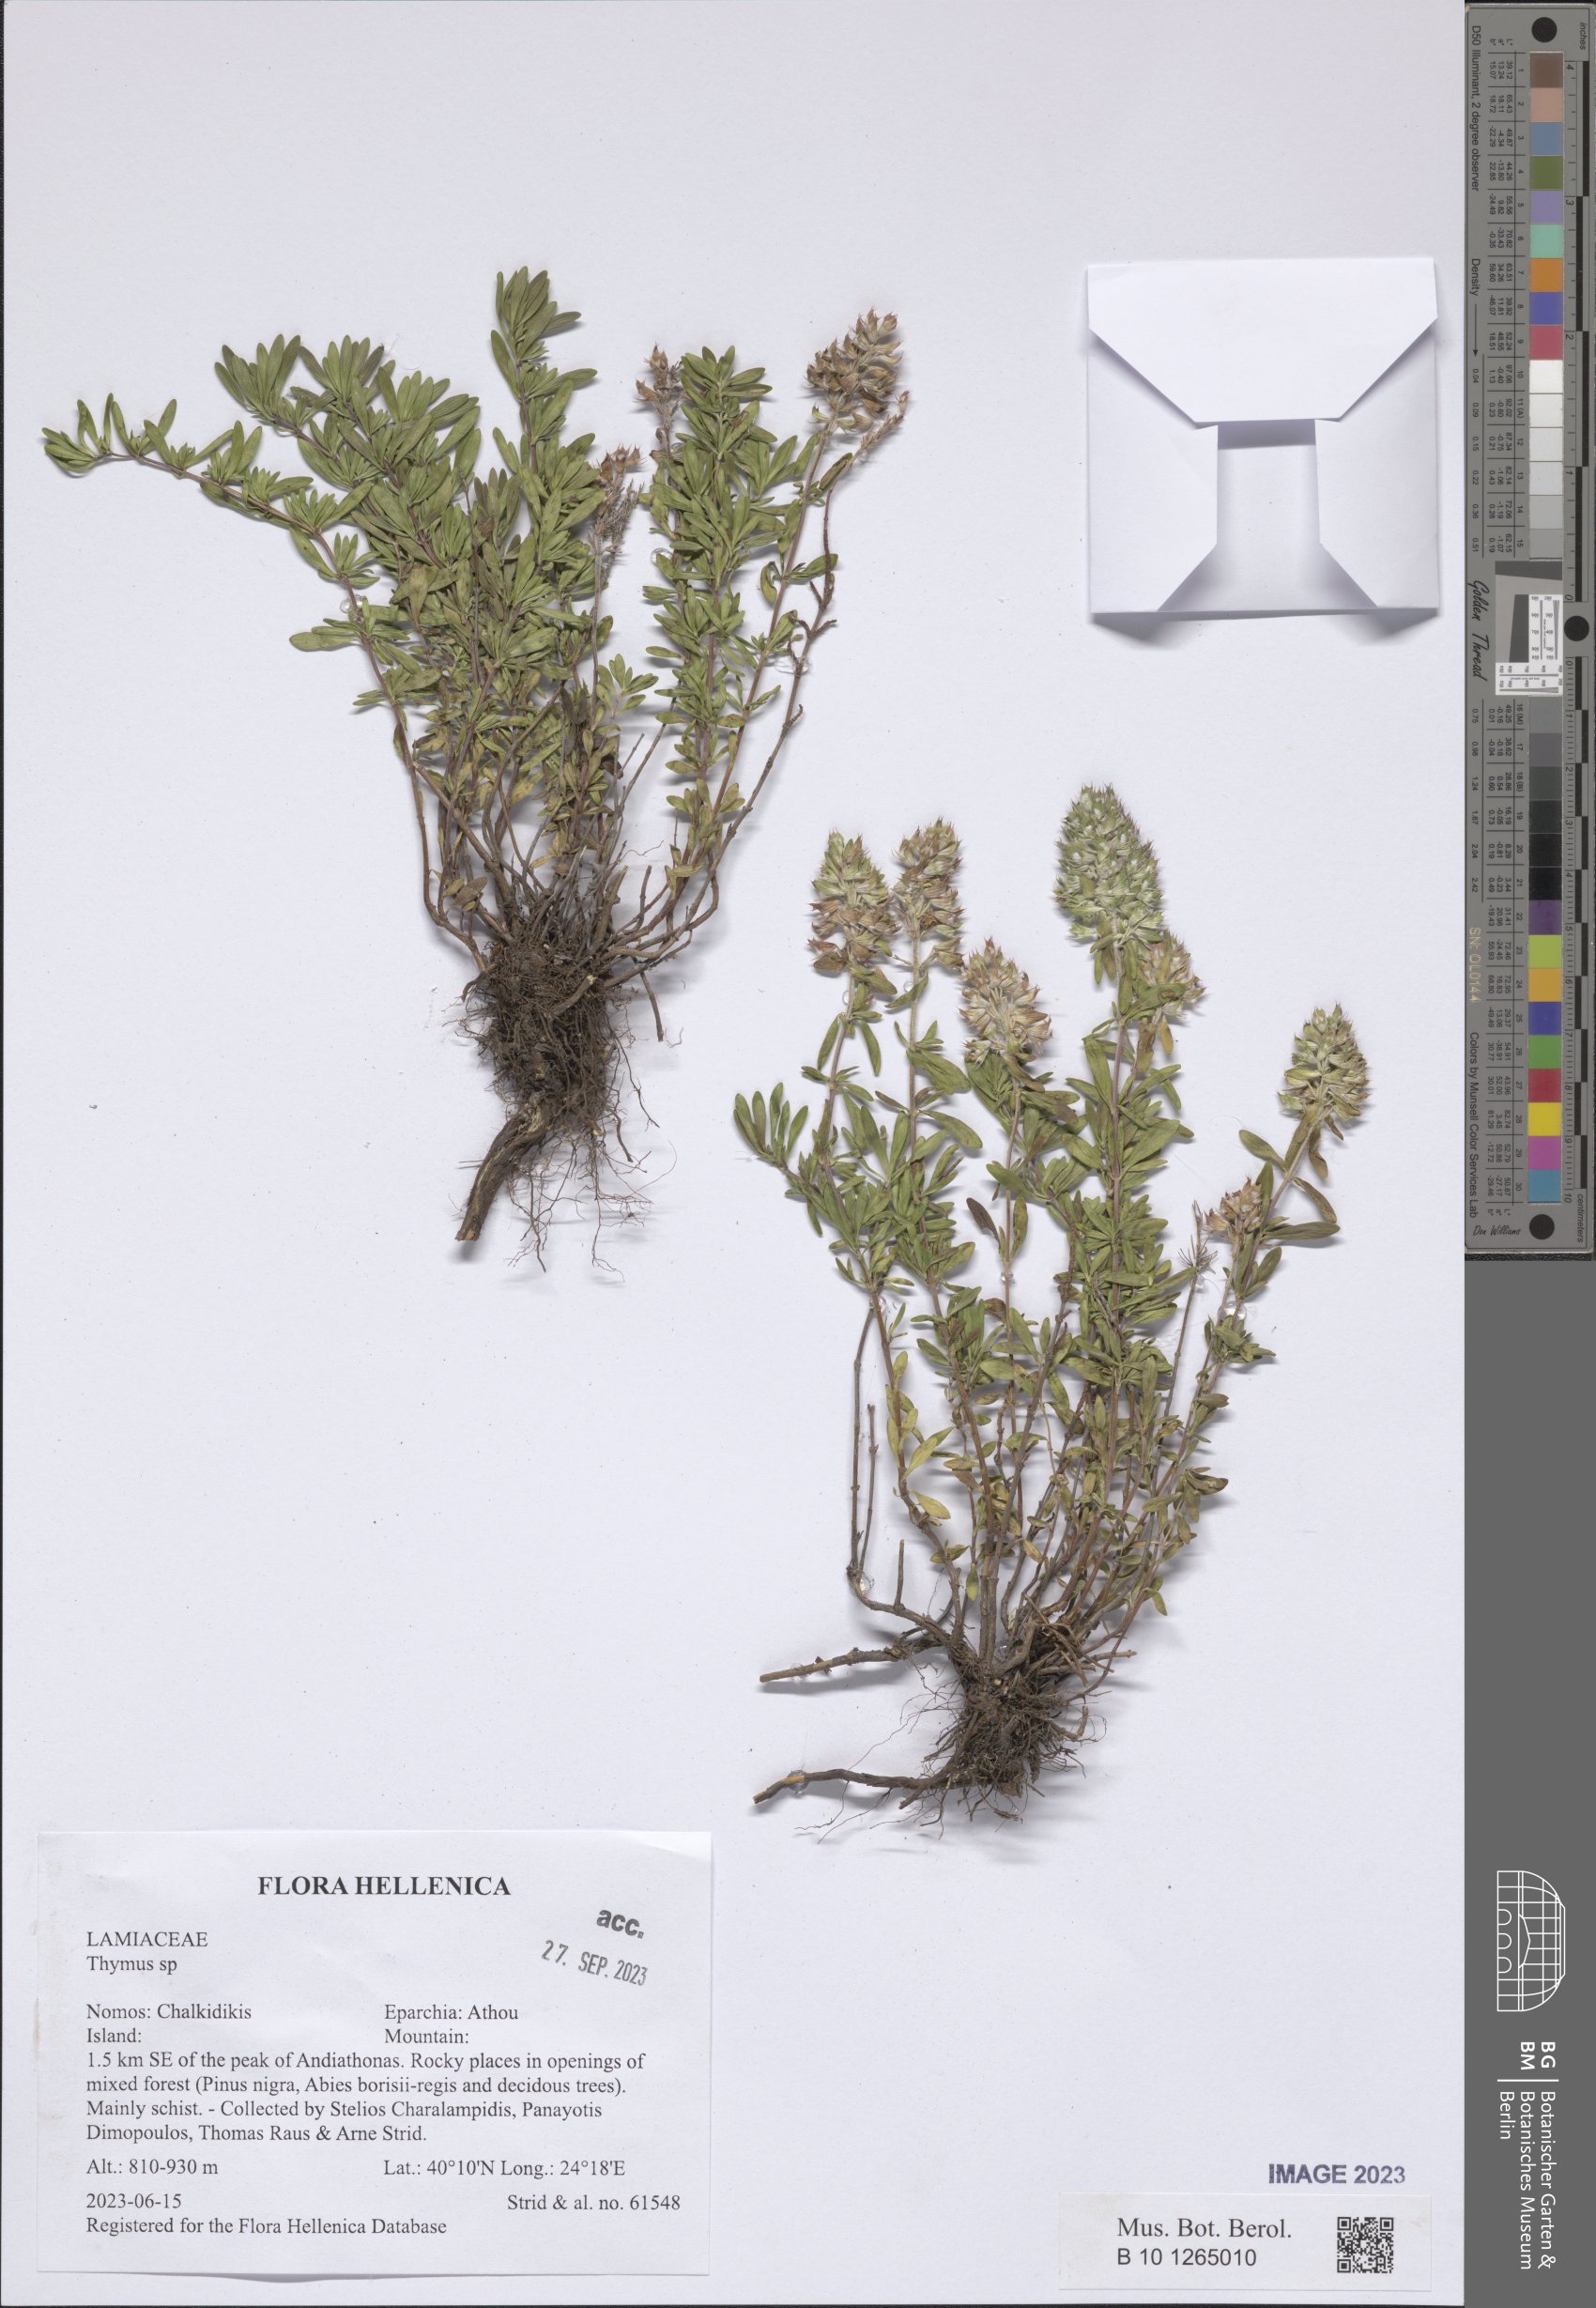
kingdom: Plantae
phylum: Tracheophyta
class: Magnoliopsida
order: Lamiales
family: Lamiaceae
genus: Thymus
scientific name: Thymus
